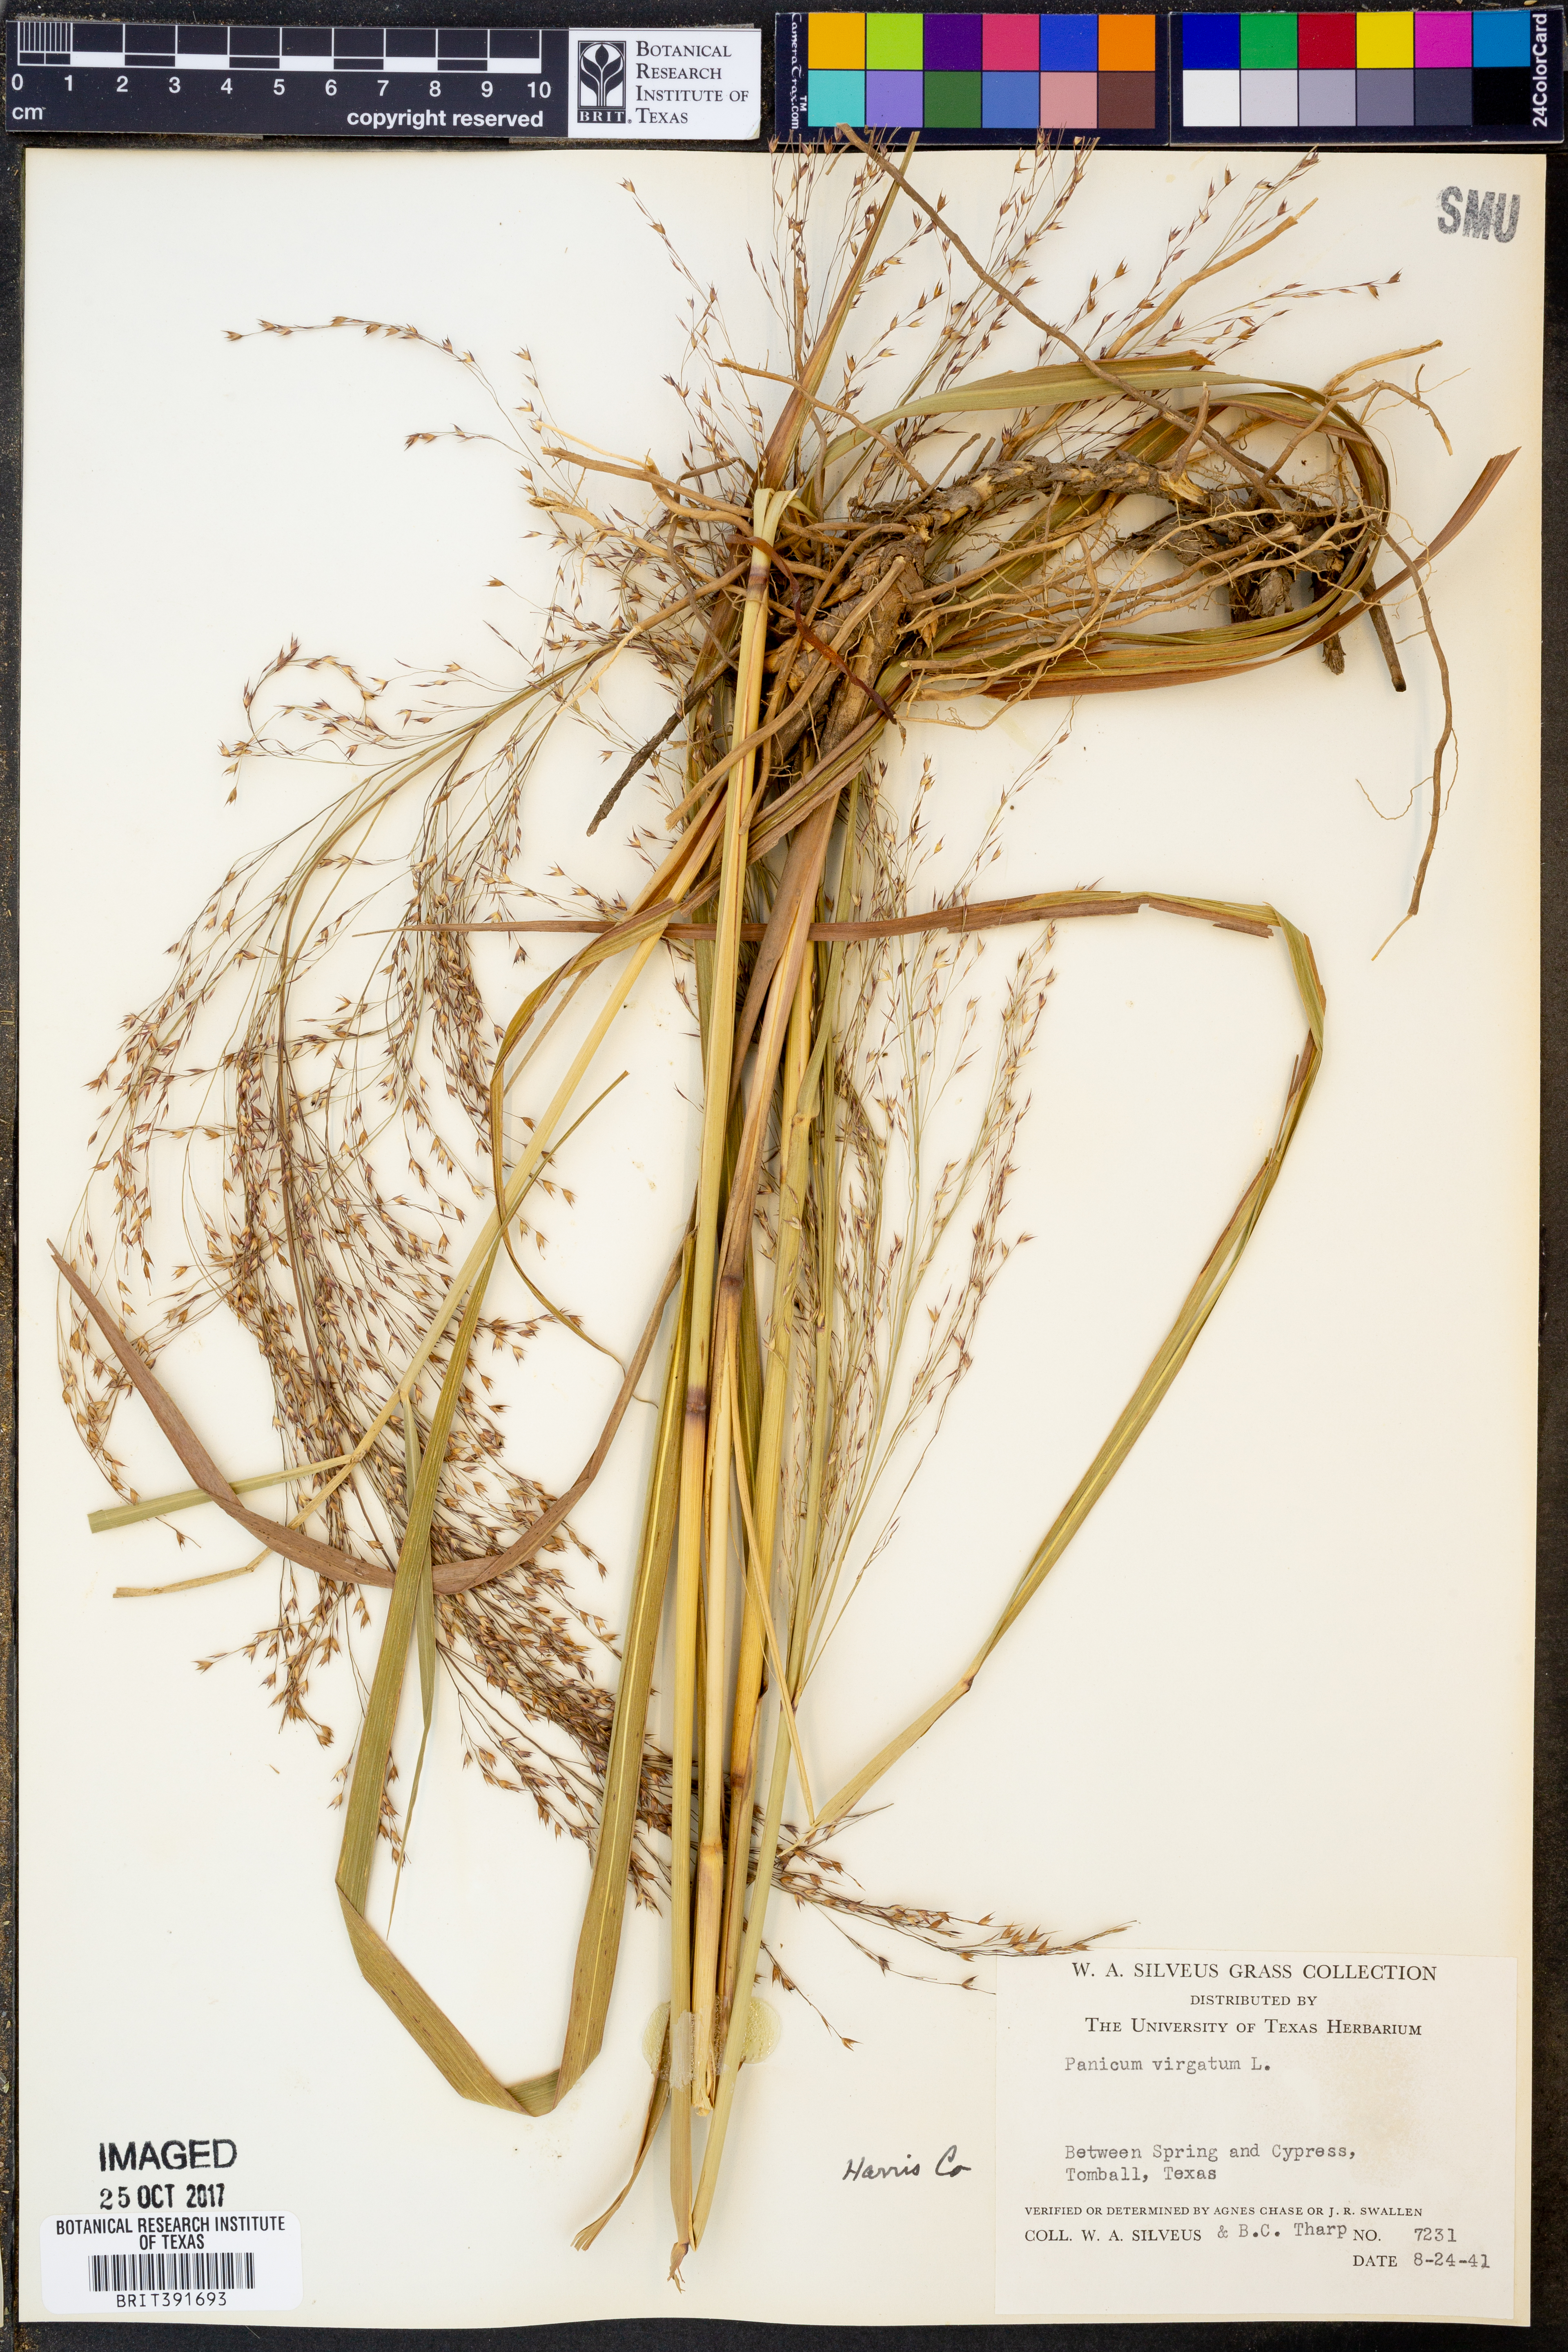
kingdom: Plantae
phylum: Tracheophyta
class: Liliopsida
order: Poales
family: Poaceae
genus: Panicum
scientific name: Panicum virgatum
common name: Switchgrass
